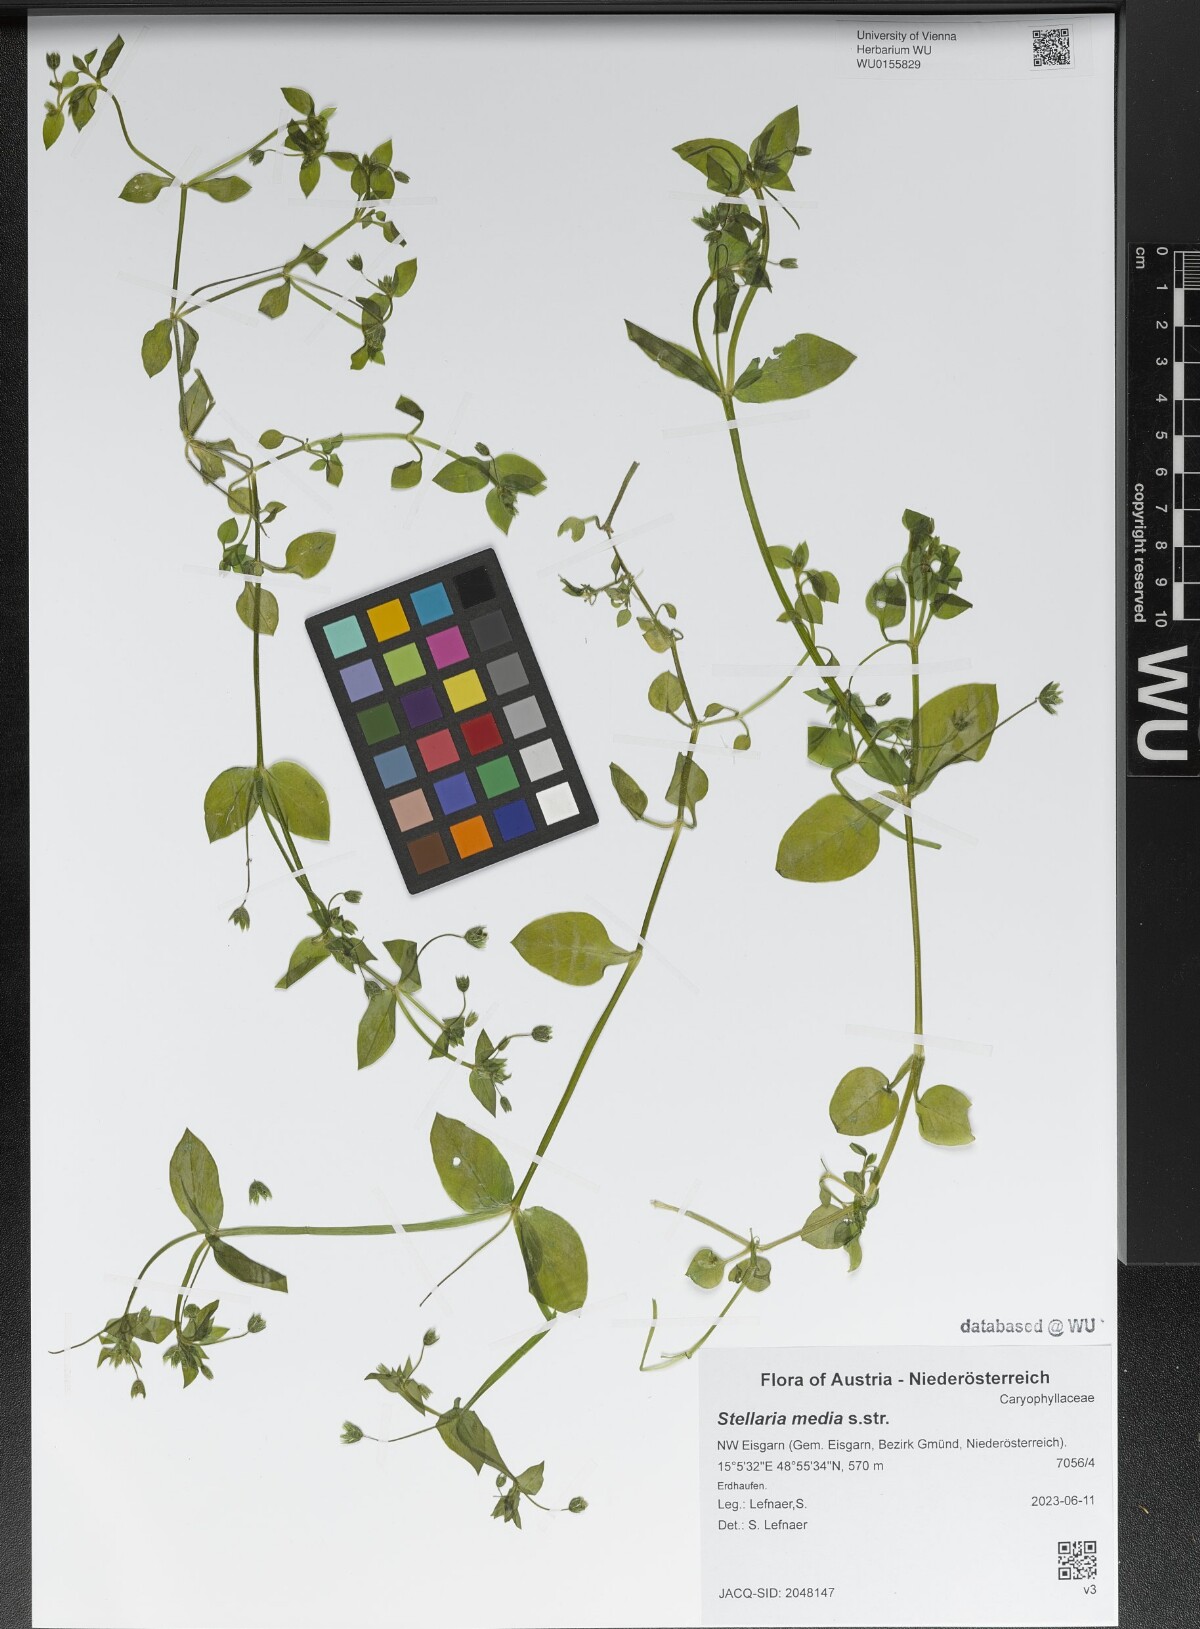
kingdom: Plantae
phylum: Tracheophyta
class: Magnoliopsida
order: Caryophyllales
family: Caryophyllaceae
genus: Stellaria
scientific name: Stellaria media
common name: Common chickweed
